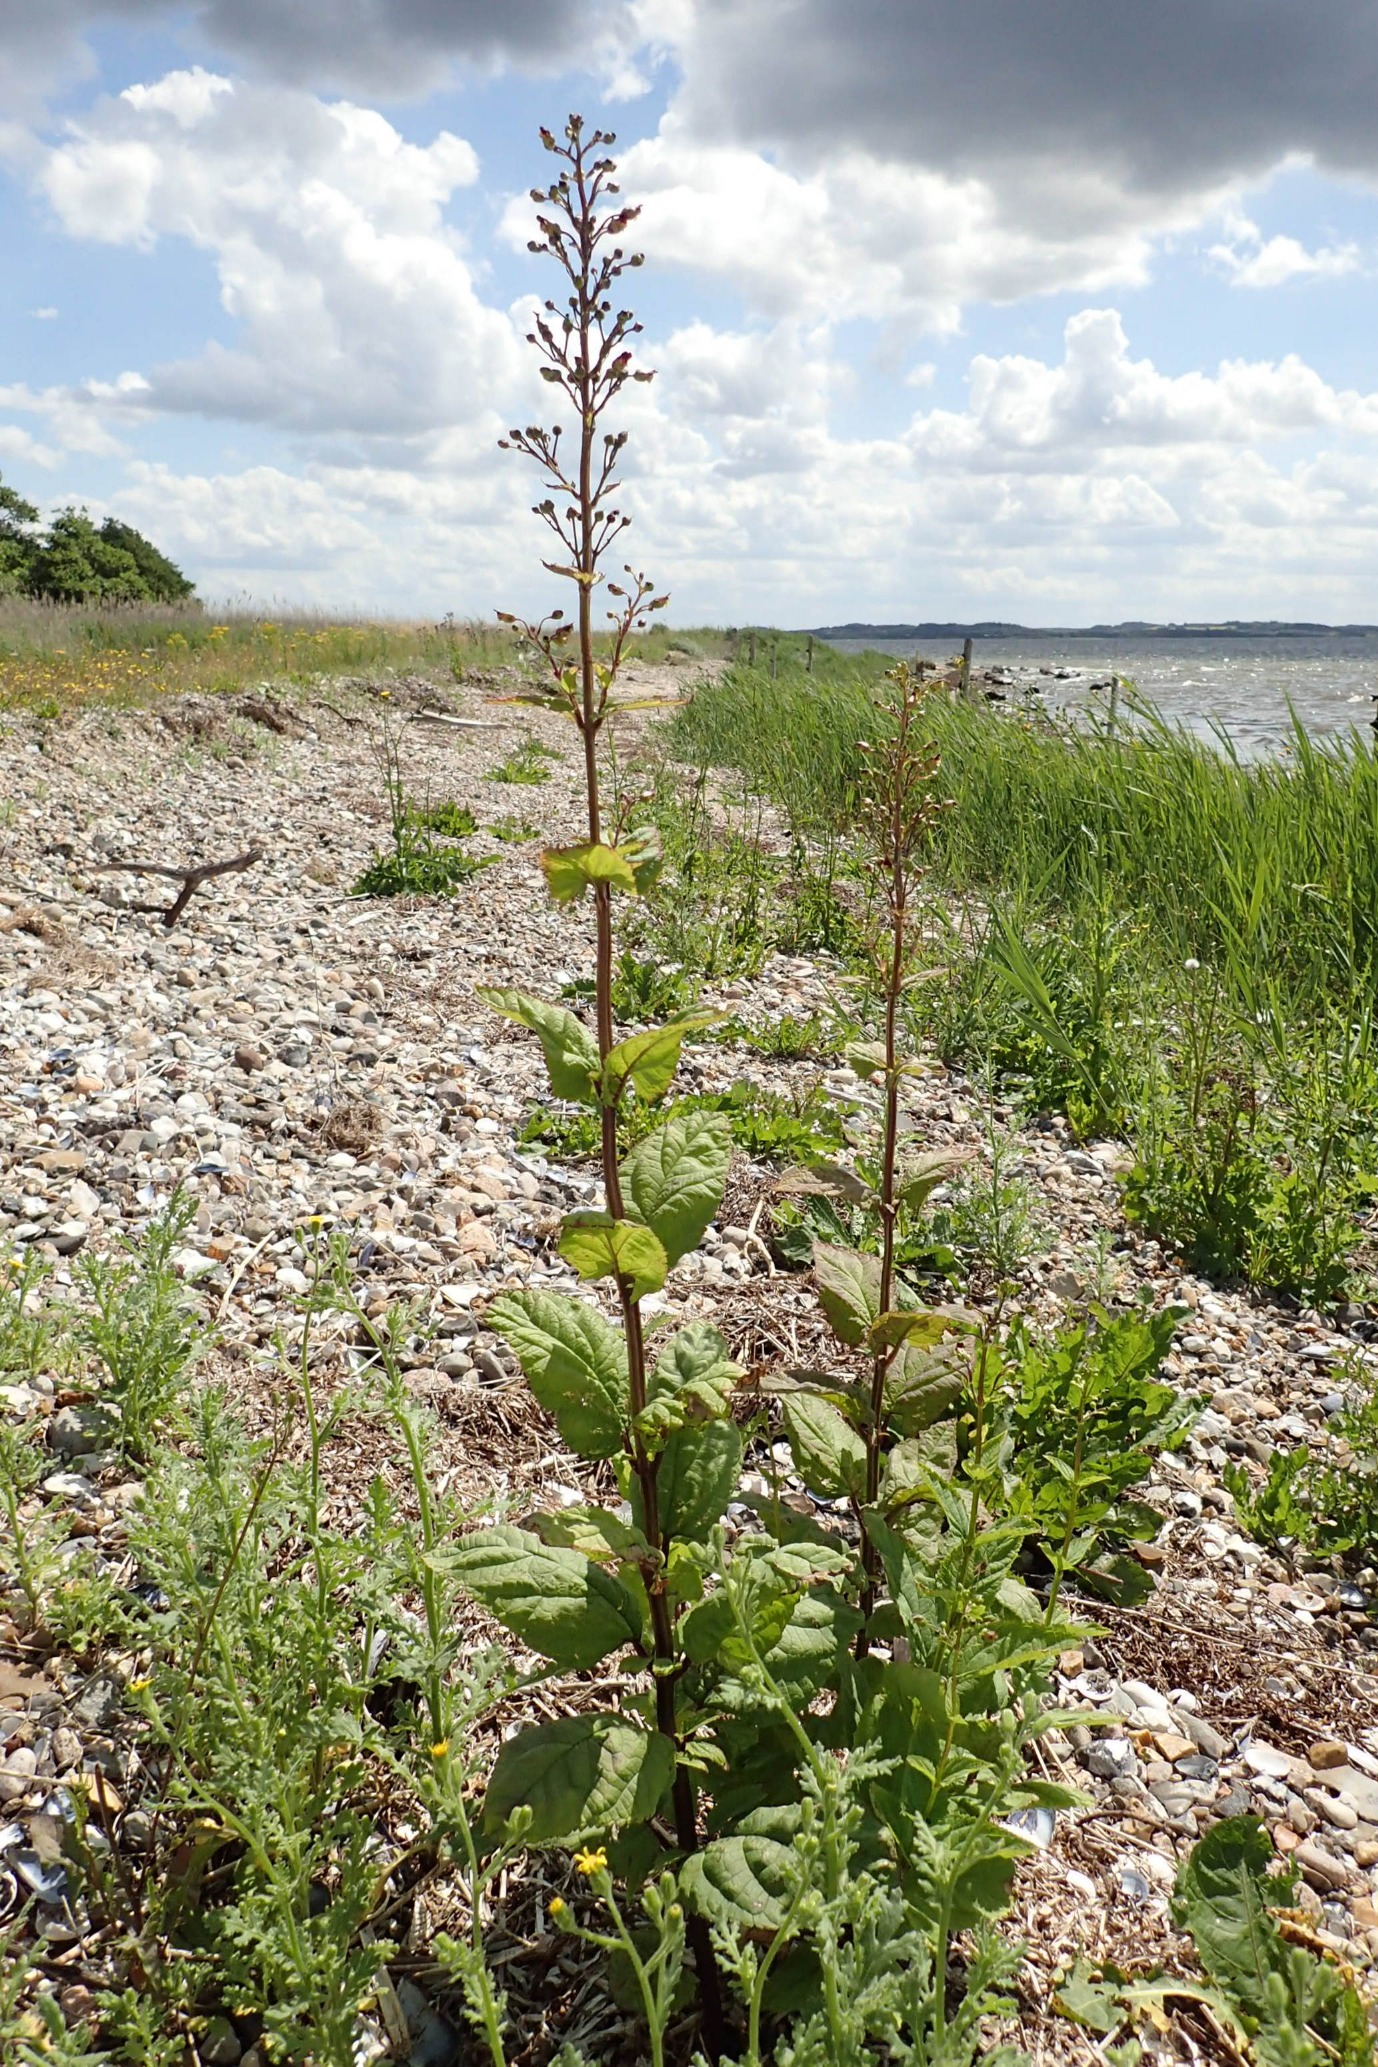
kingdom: Plantae
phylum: Tracheophyta
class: Magnoliopsida
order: Lamiales
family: Scrophulariaceae
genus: Scrophularia
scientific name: Scrophularia nodosa
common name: Knoldet brunrod
